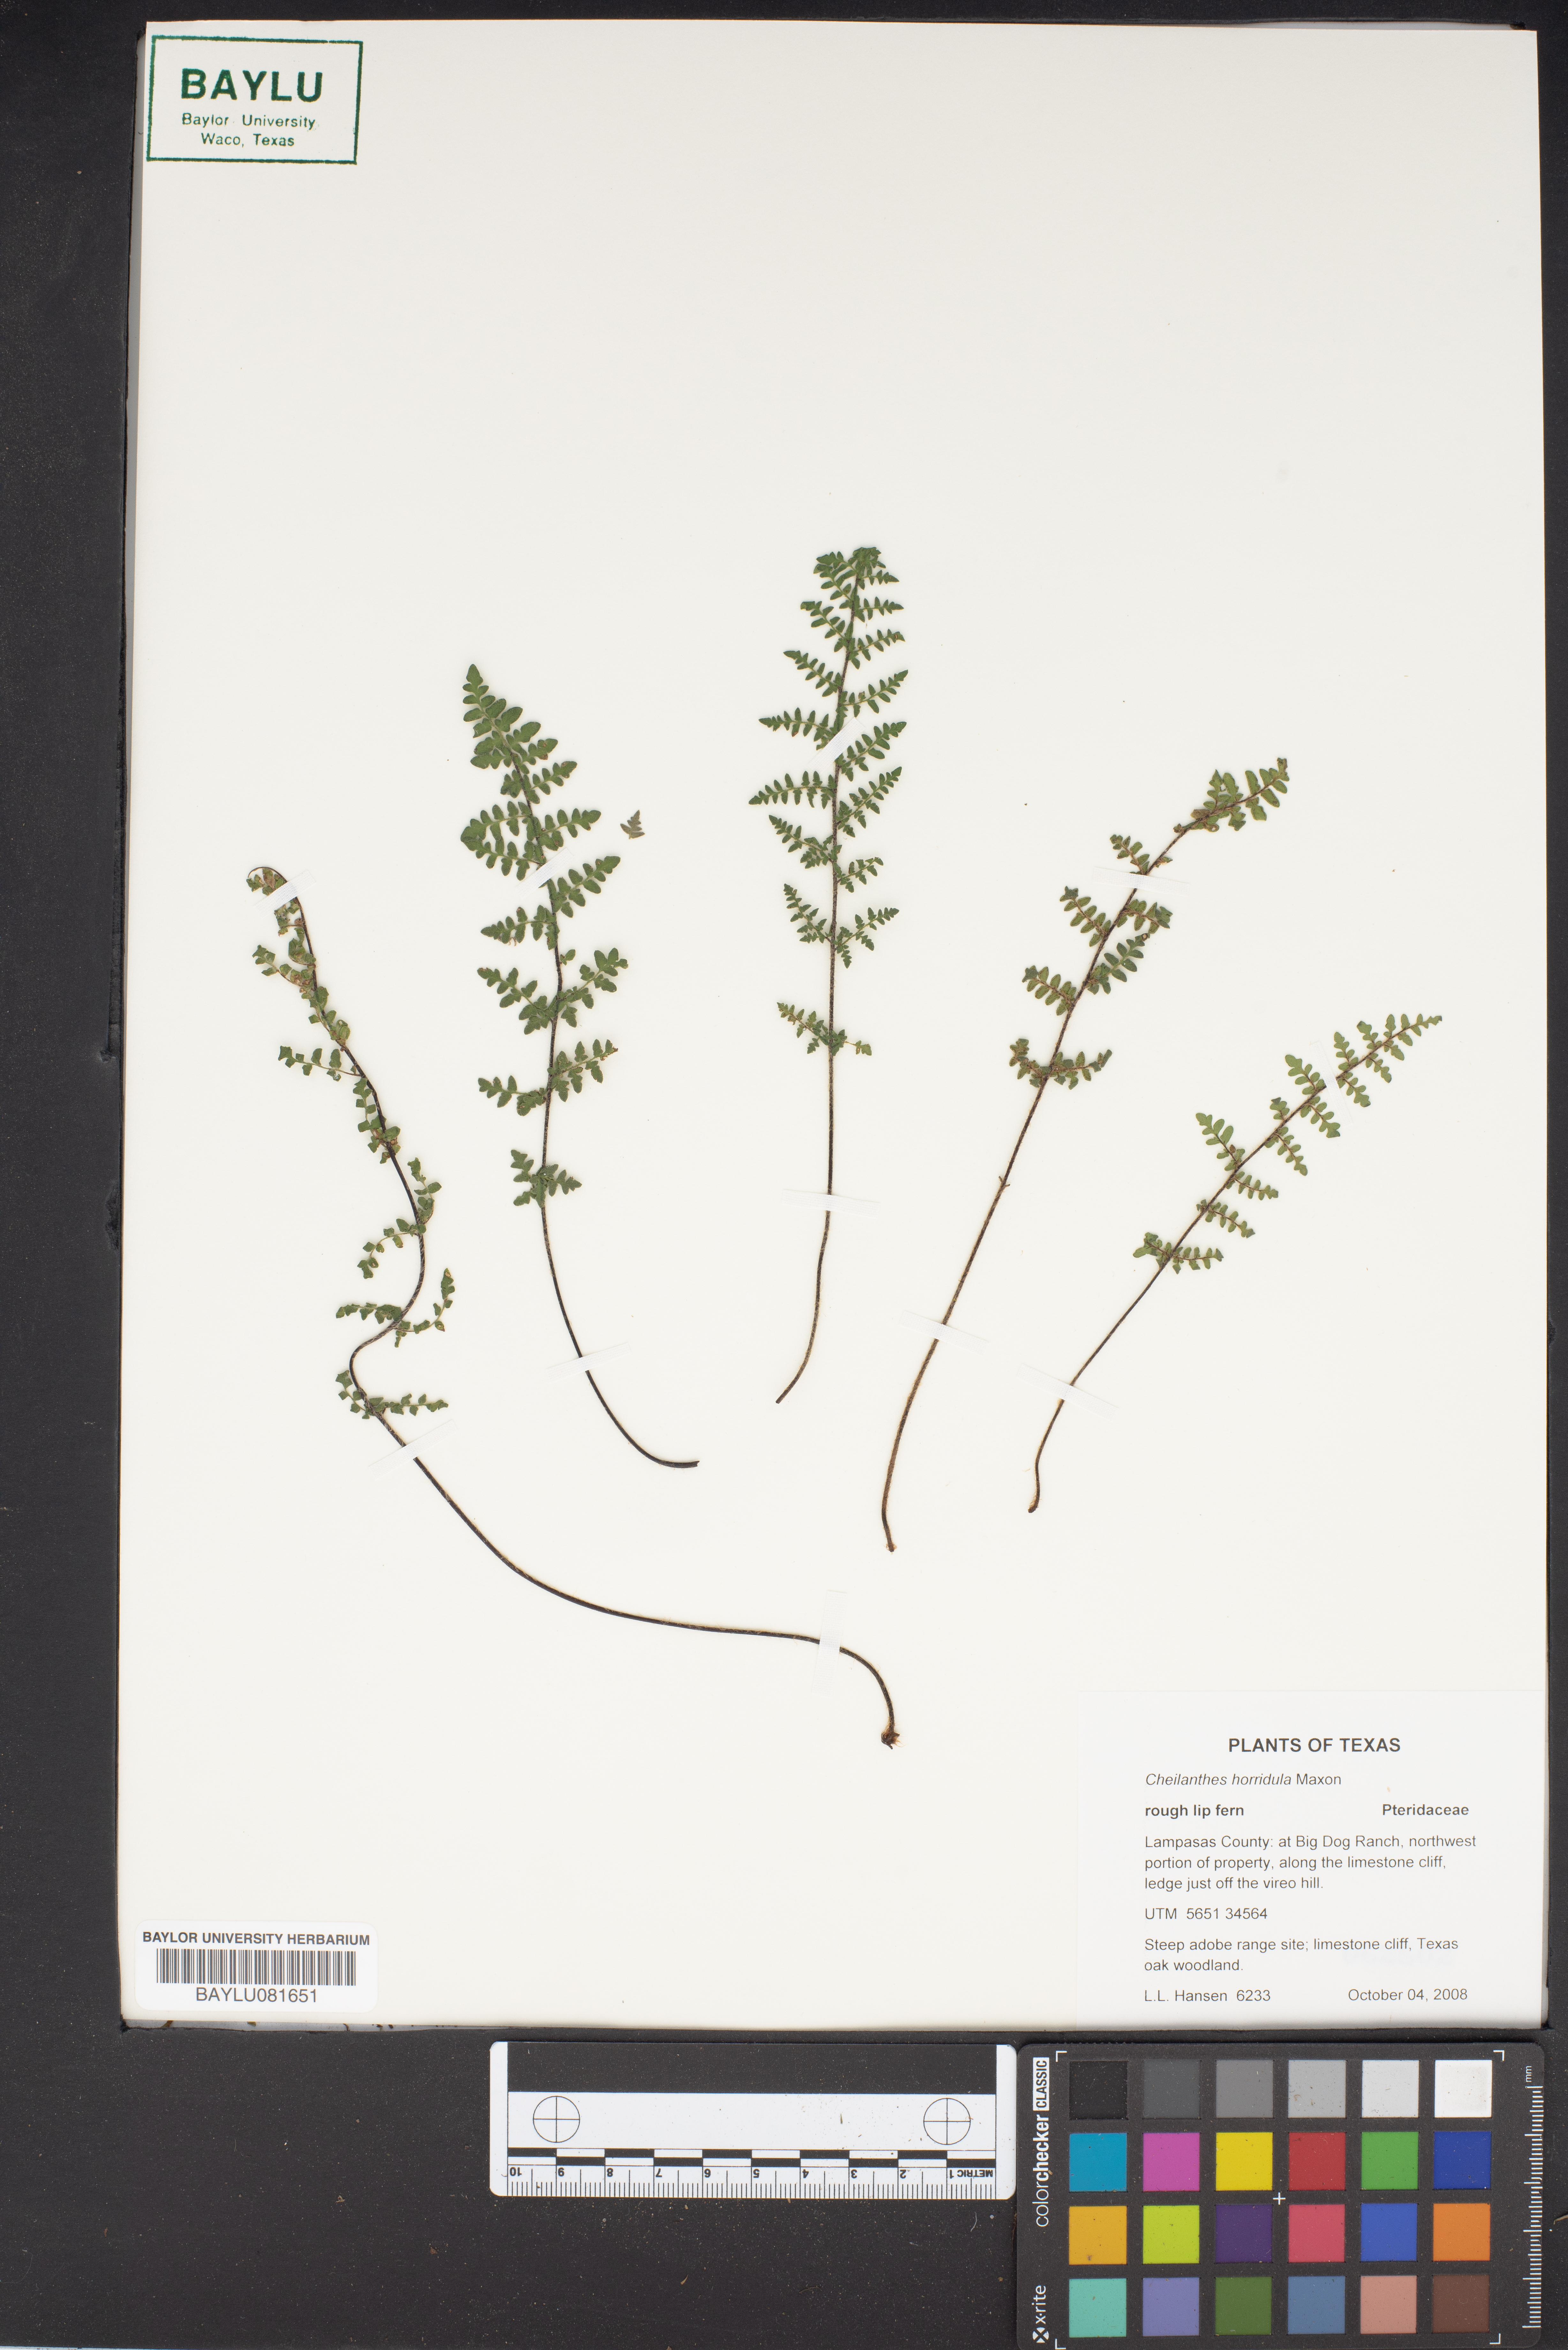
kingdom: Plantae
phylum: Tracheophyta
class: Polypodiopsida
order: Polypodiales
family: Pteridaceae
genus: Myriopteris
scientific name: Myriopteris scabra
